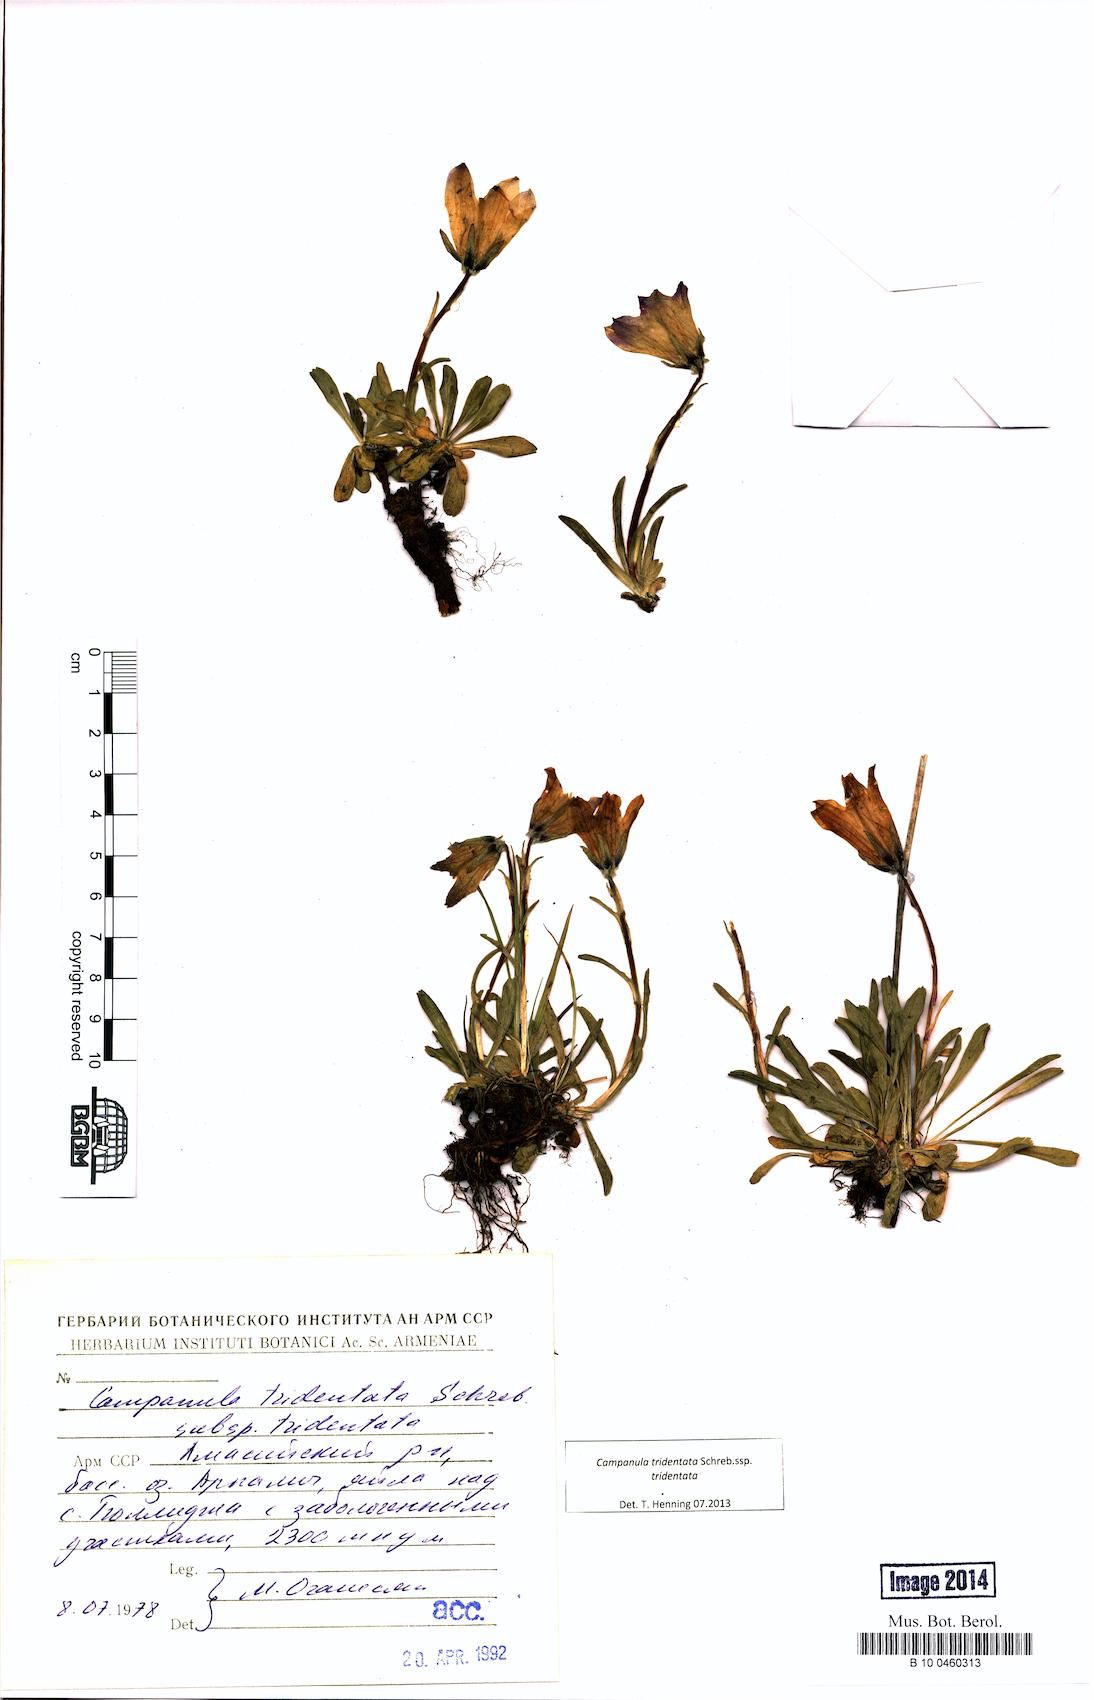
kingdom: Plantae
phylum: Tracheophyta
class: Magnoliopsida
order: Asterales
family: Campanulaceae
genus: Campanula
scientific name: Campanula tridentata
